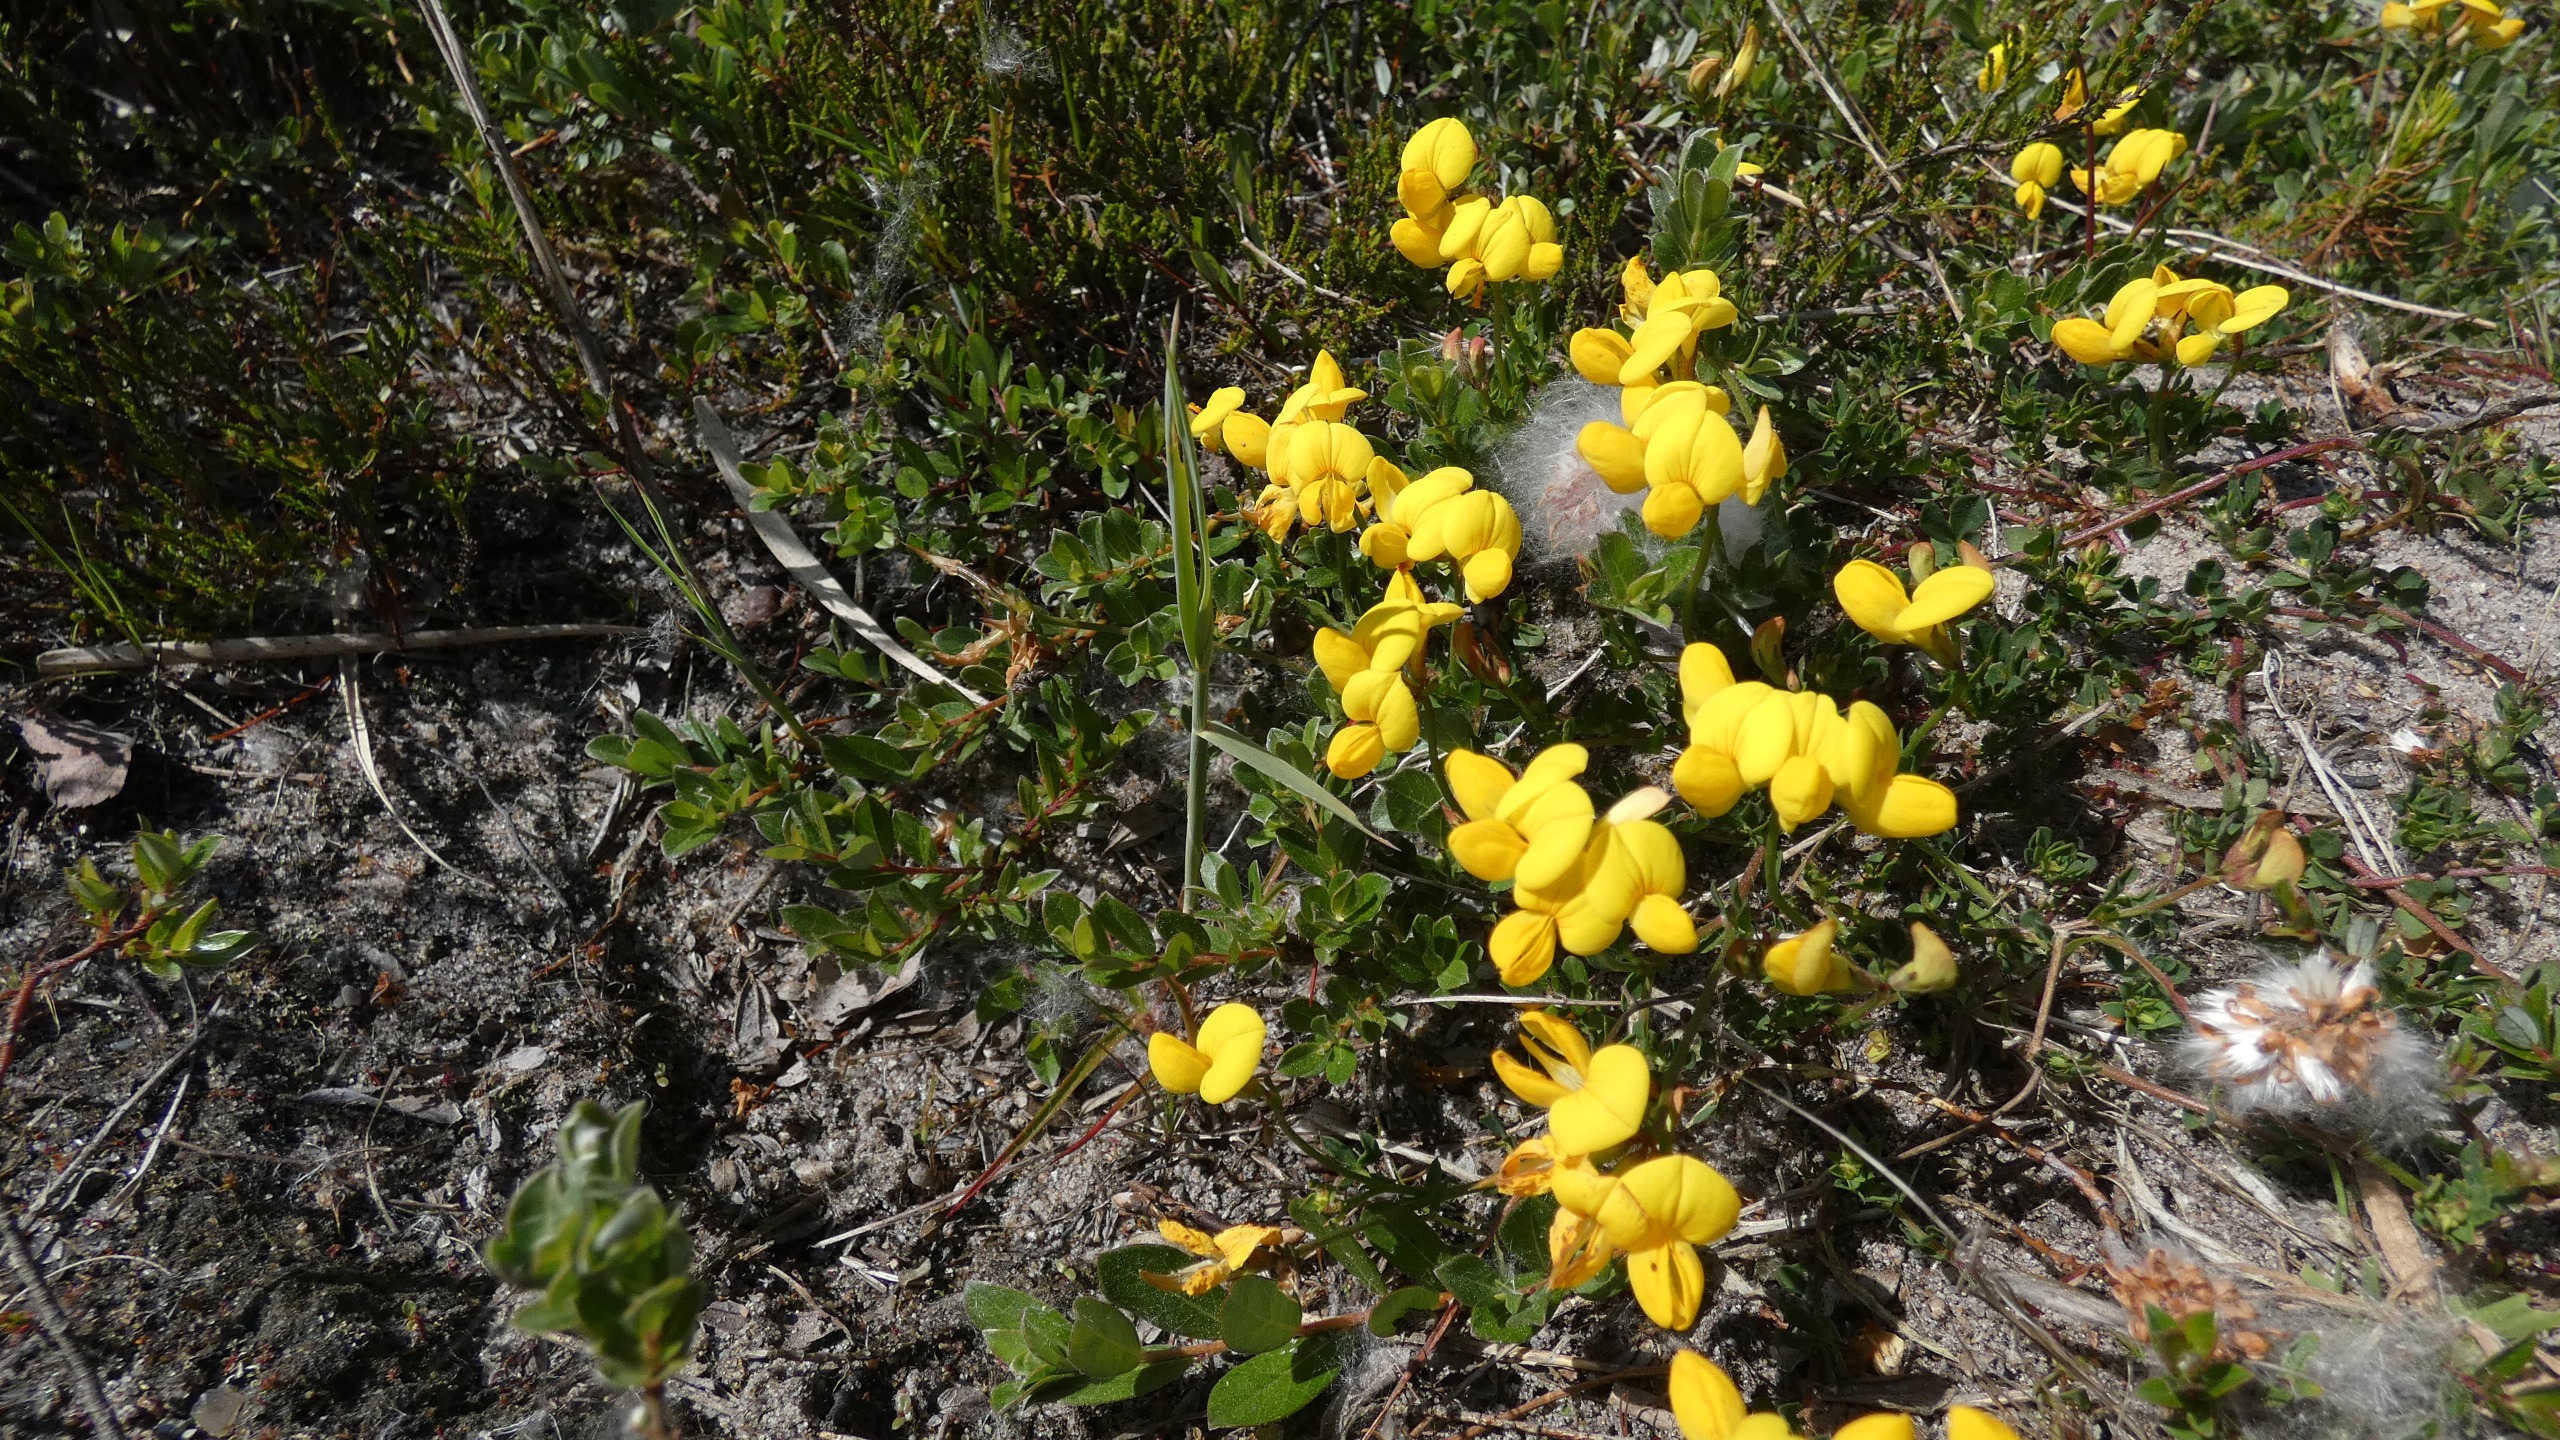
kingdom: Plantae
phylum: Tracheophyta
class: Magnoliopsida
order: Fabales
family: Fabaceae
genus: Lotus
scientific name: Lotus corniculatus
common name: Almindelig kællingetand
